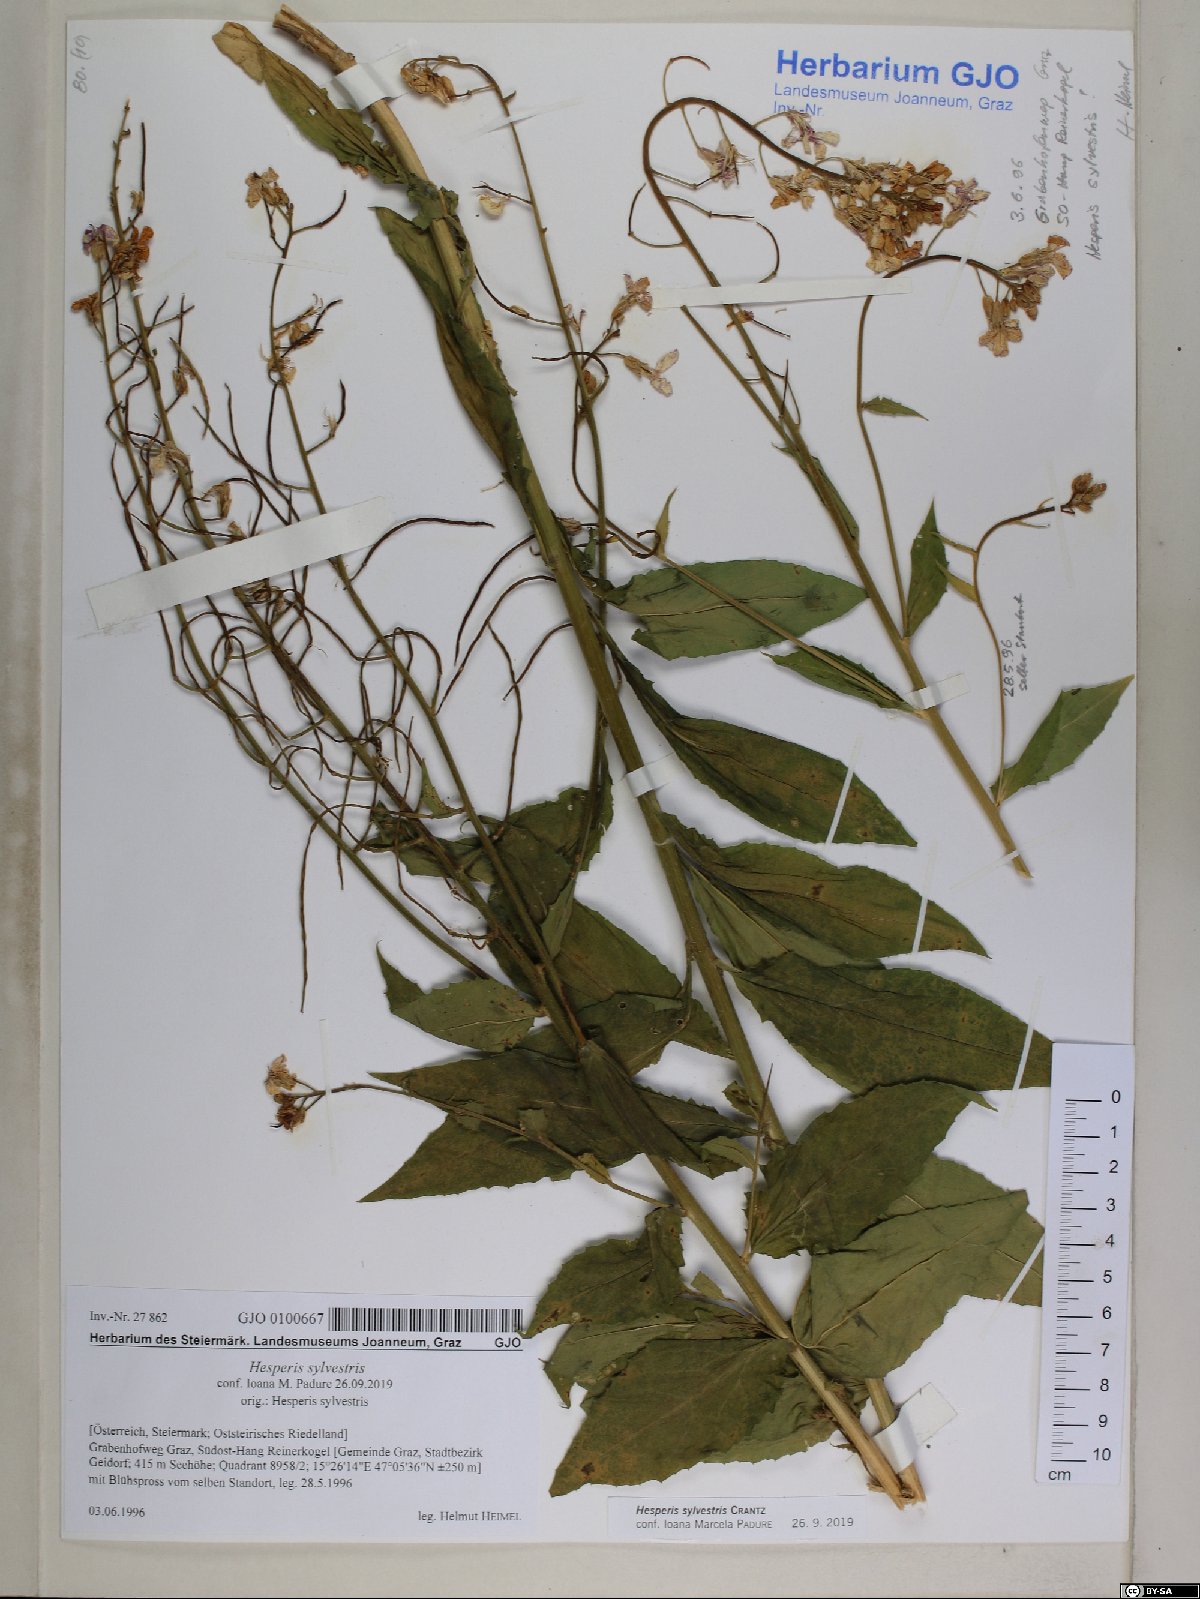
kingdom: Plantae
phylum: Tracheophyta
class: Magnoliopsida
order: Brassicales
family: Brassicaceae
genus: Hesperis
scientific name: Hesperis sylvestris
